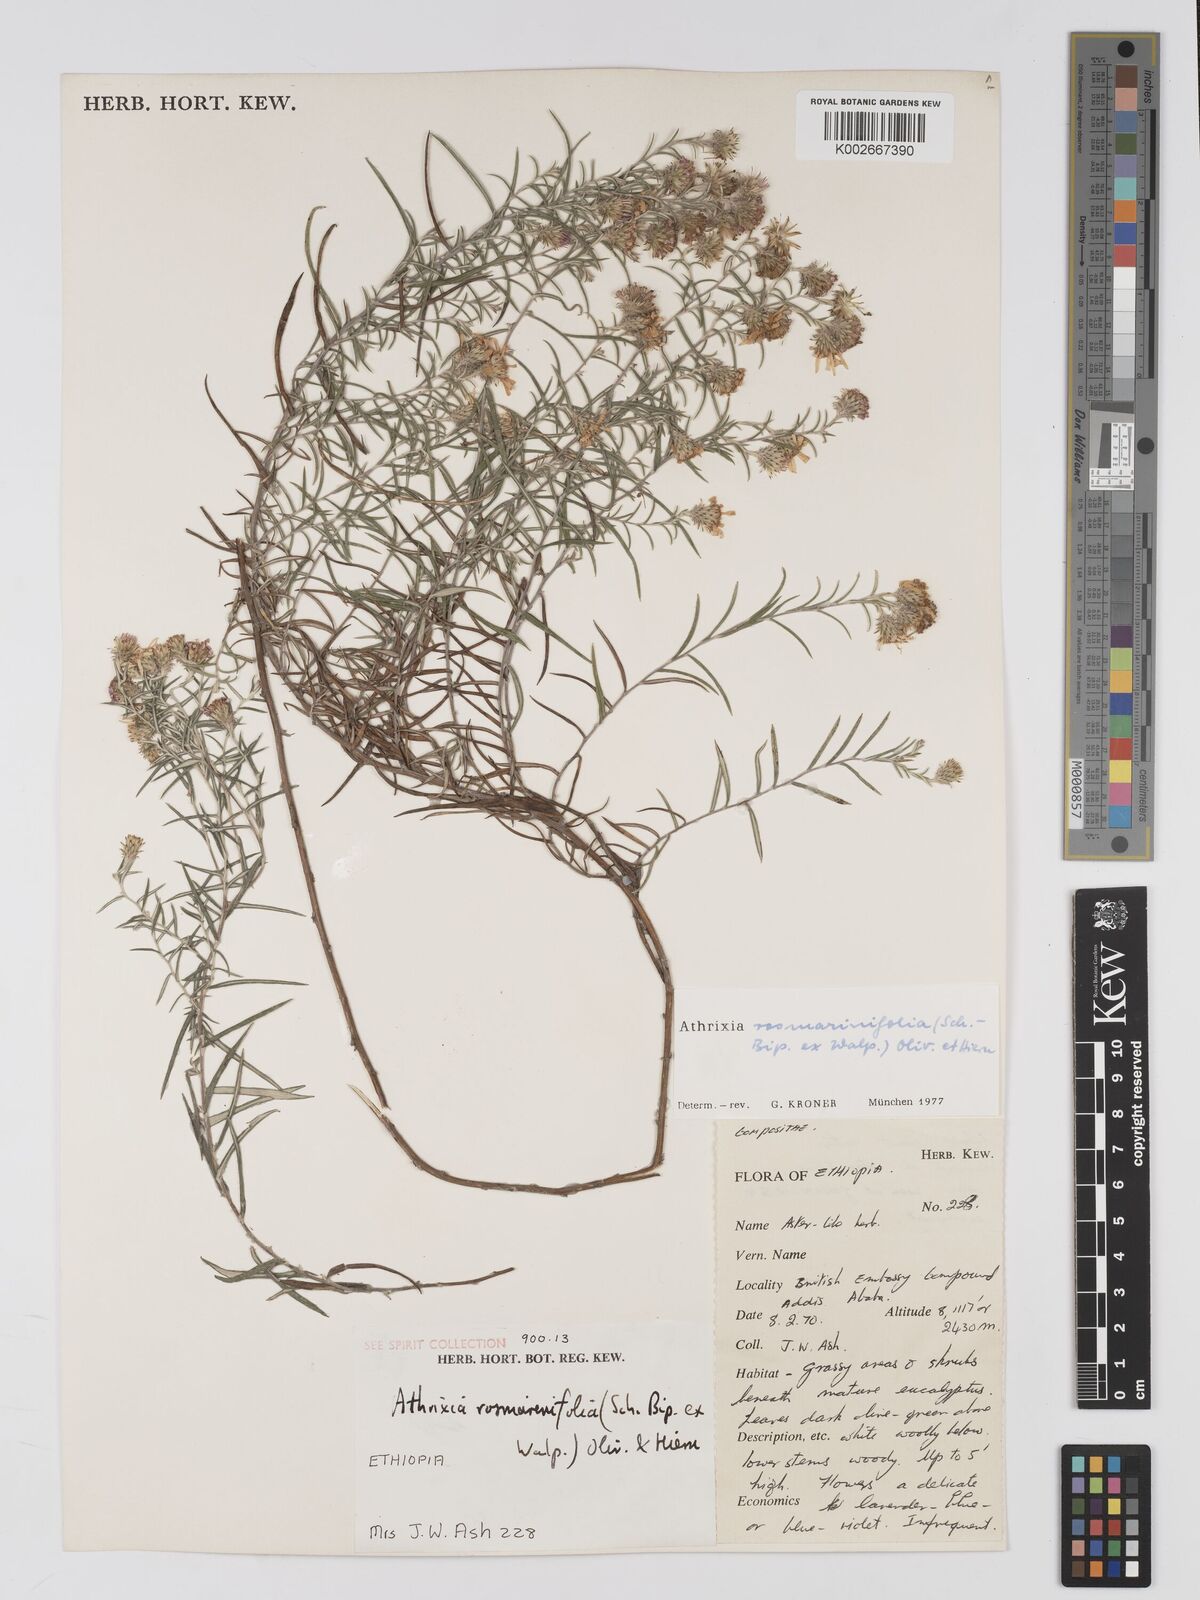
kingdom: Plantae
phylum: Tracheophyta
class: Magnoliopsida
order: Asterales
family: Asteraceae
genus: Athrixia
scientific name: Athrixia rosmarinifolia
